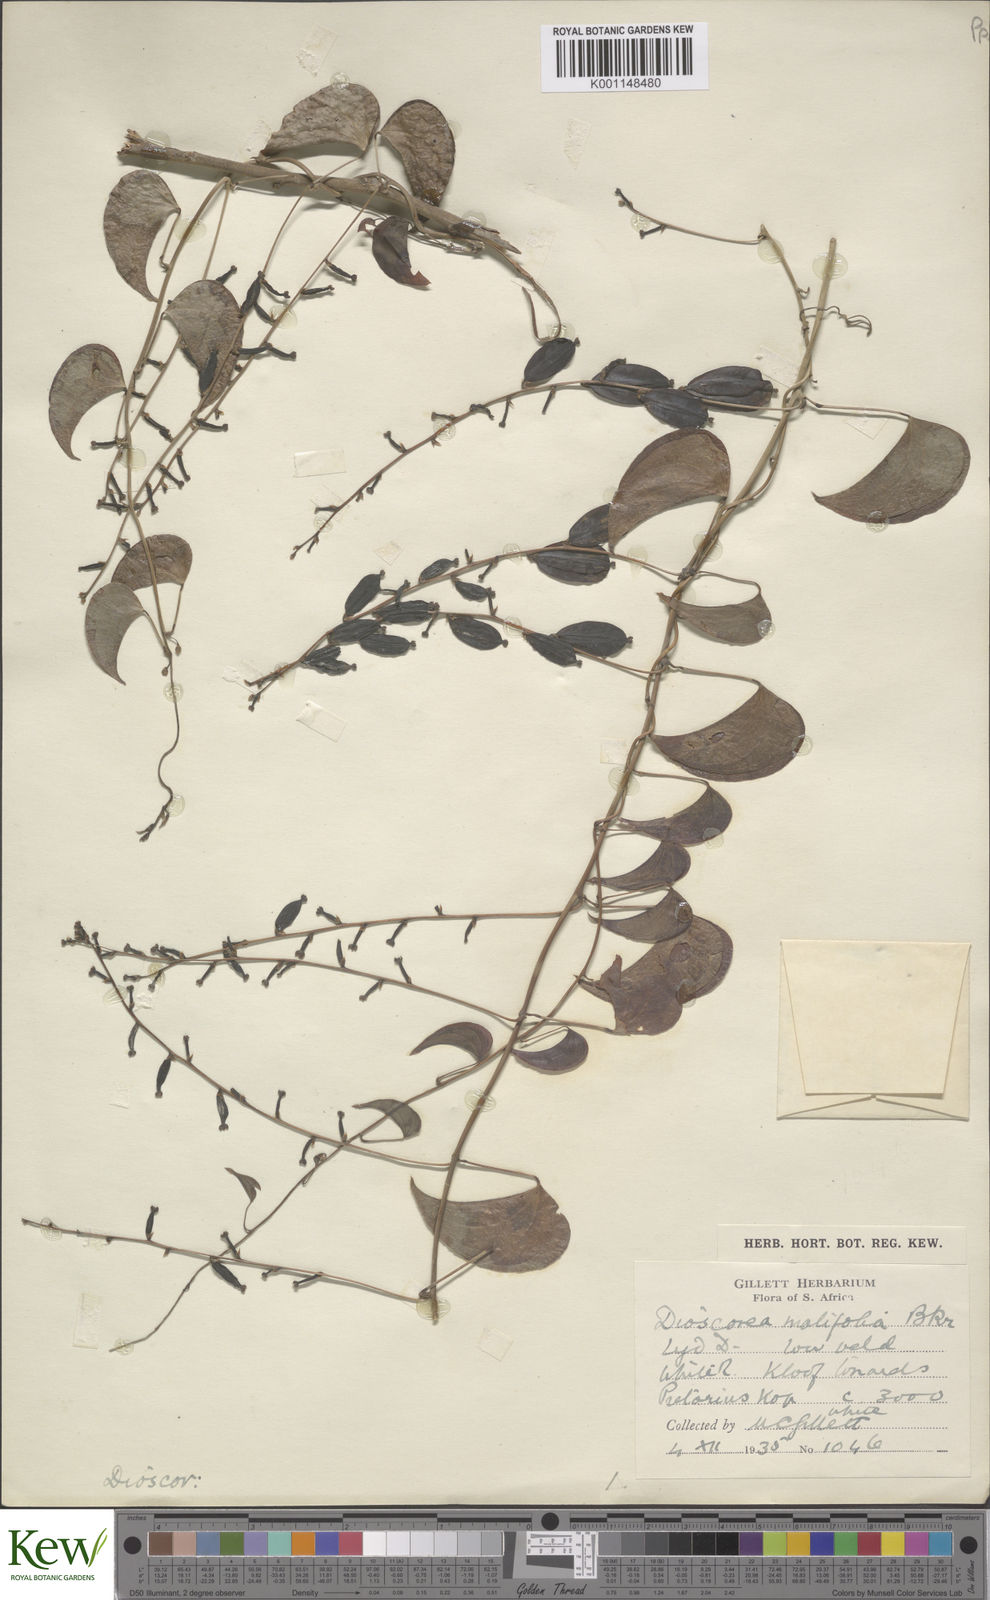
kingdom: Plantae
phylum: Tracheophyta
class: Liliopsida
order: Dioscoreales
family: Dioscoreaceae
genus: Dioscorea
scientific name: Dioscorea cotinifolia
